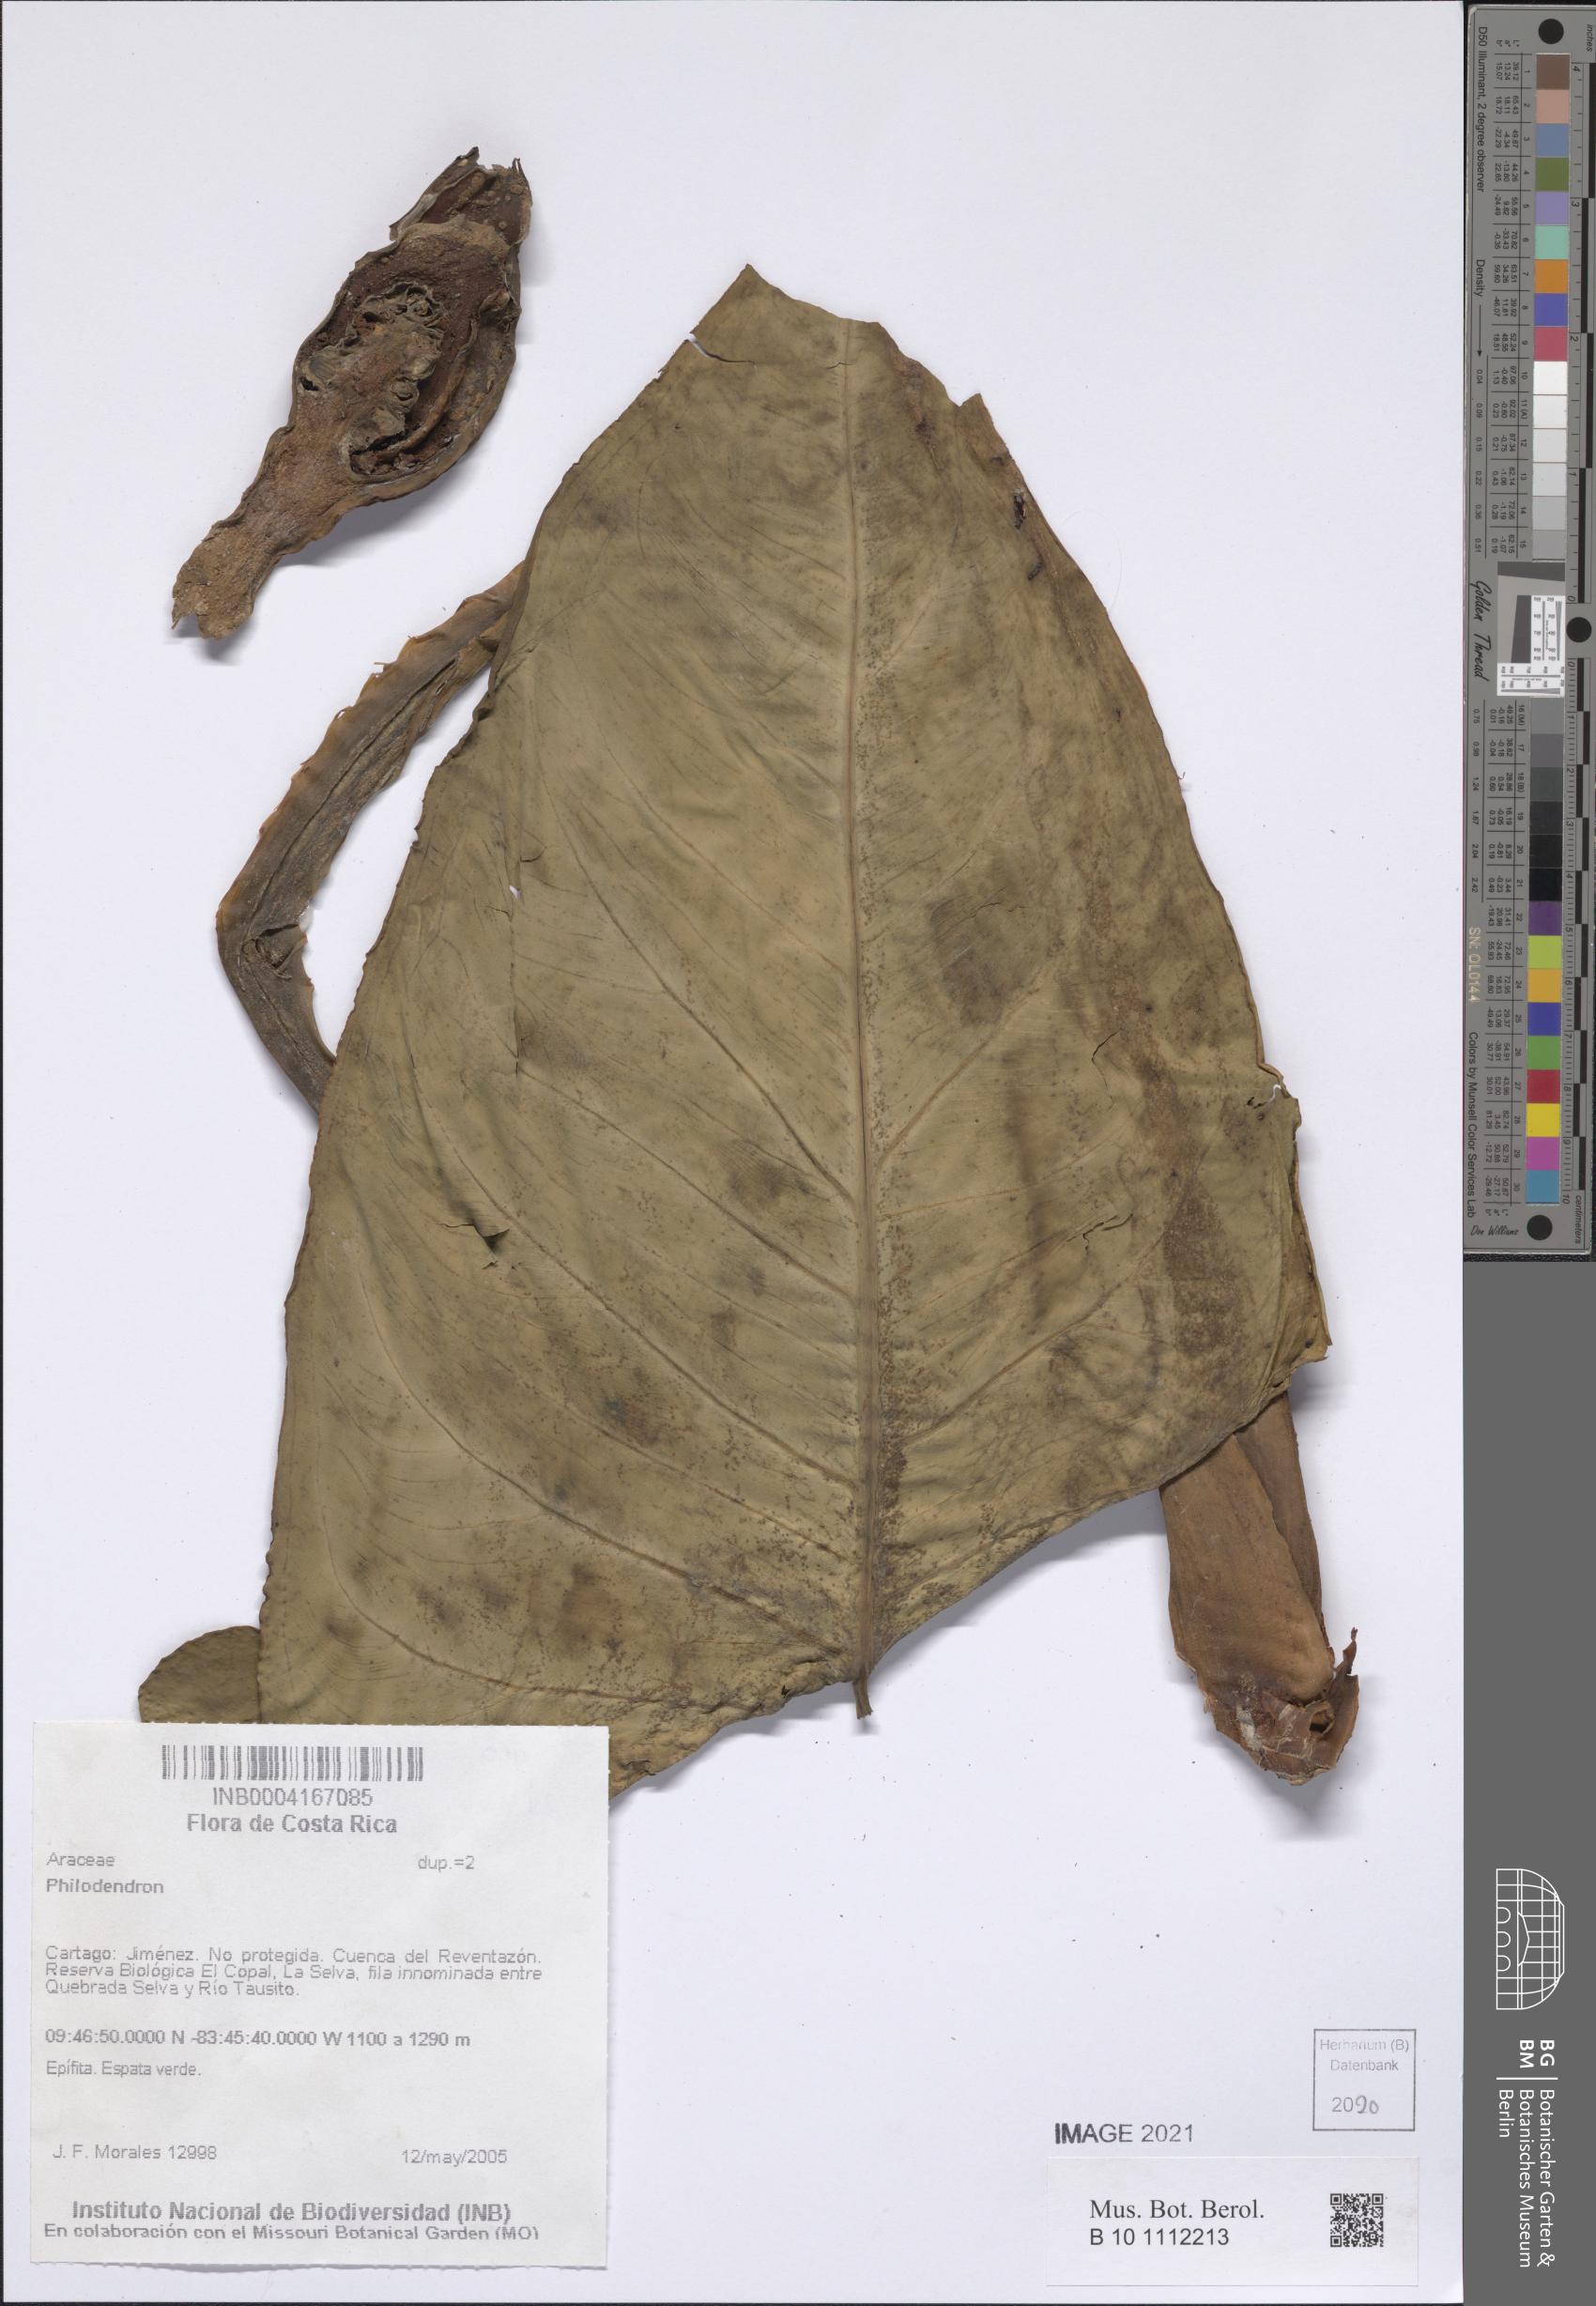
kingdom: Plantae
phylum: Tracheophyta
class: Liliopsida
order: Alismatales
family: Araceae
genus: Philodendron
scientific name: Philodendron
